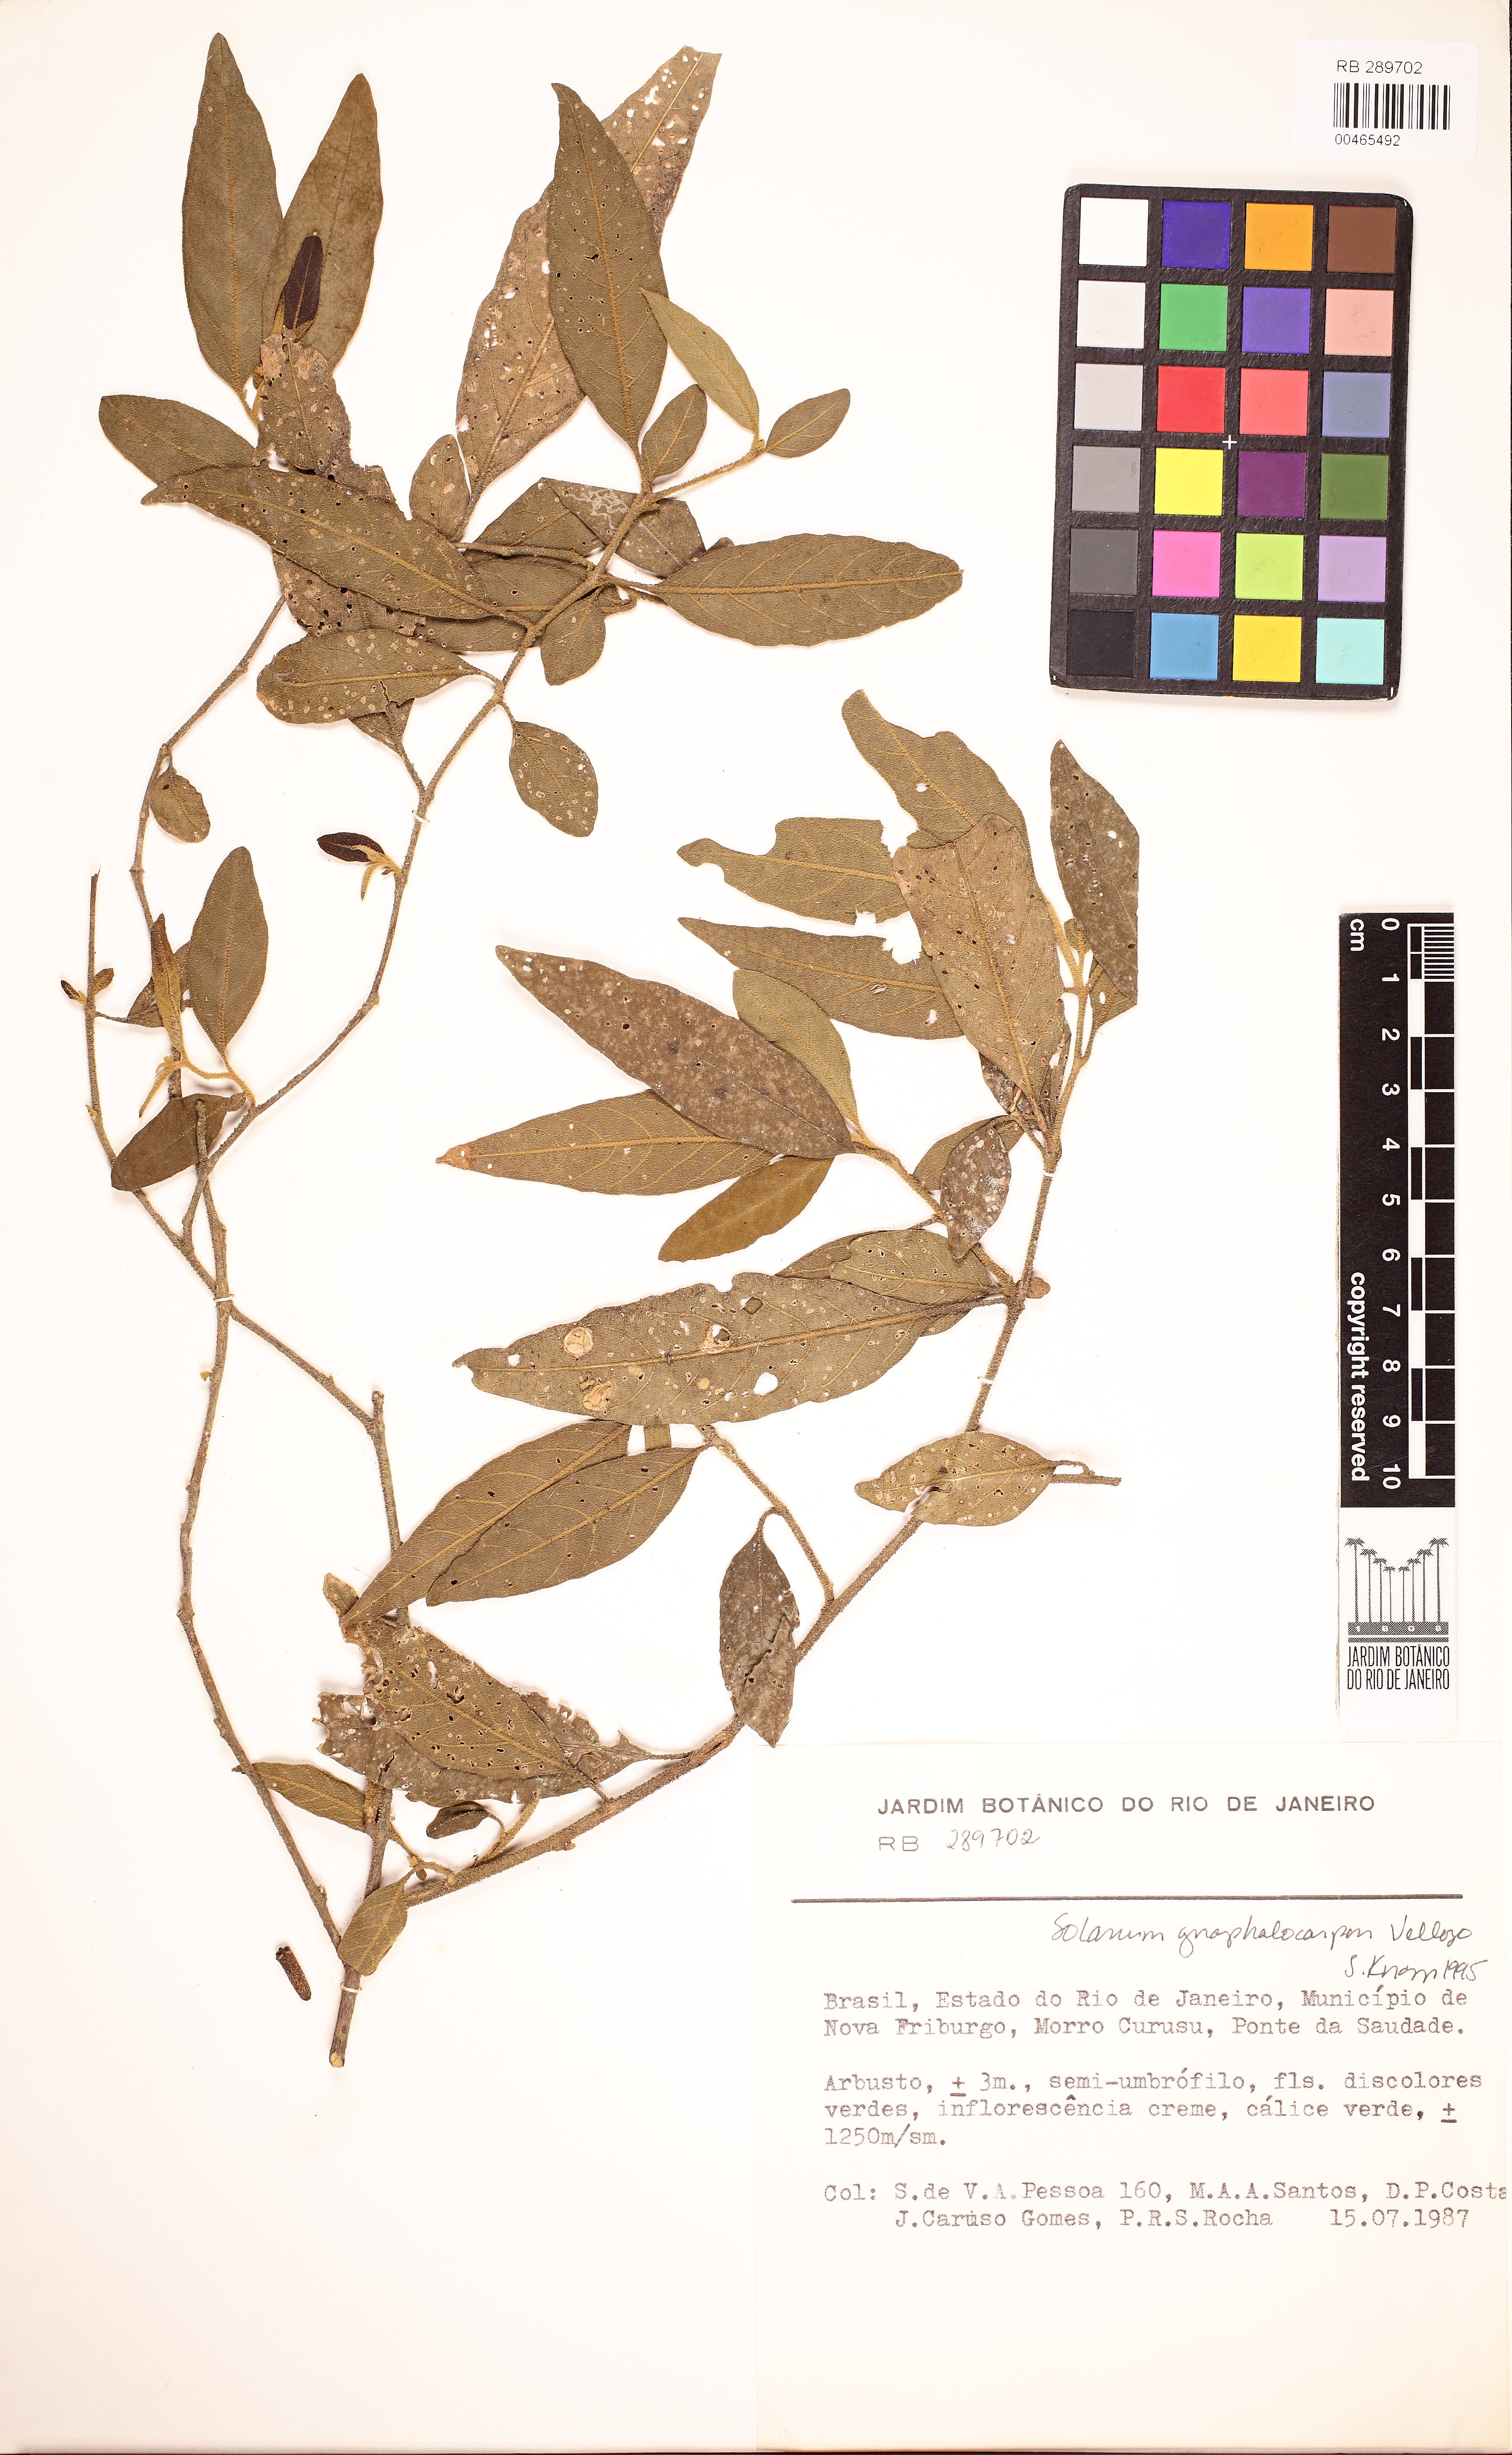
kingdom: Plantae
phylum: Tracheophyta
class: Magnoliopsida
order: Solanales
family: Solanaceae
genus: Solanum
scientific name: Solanum gnaphalocarpum
